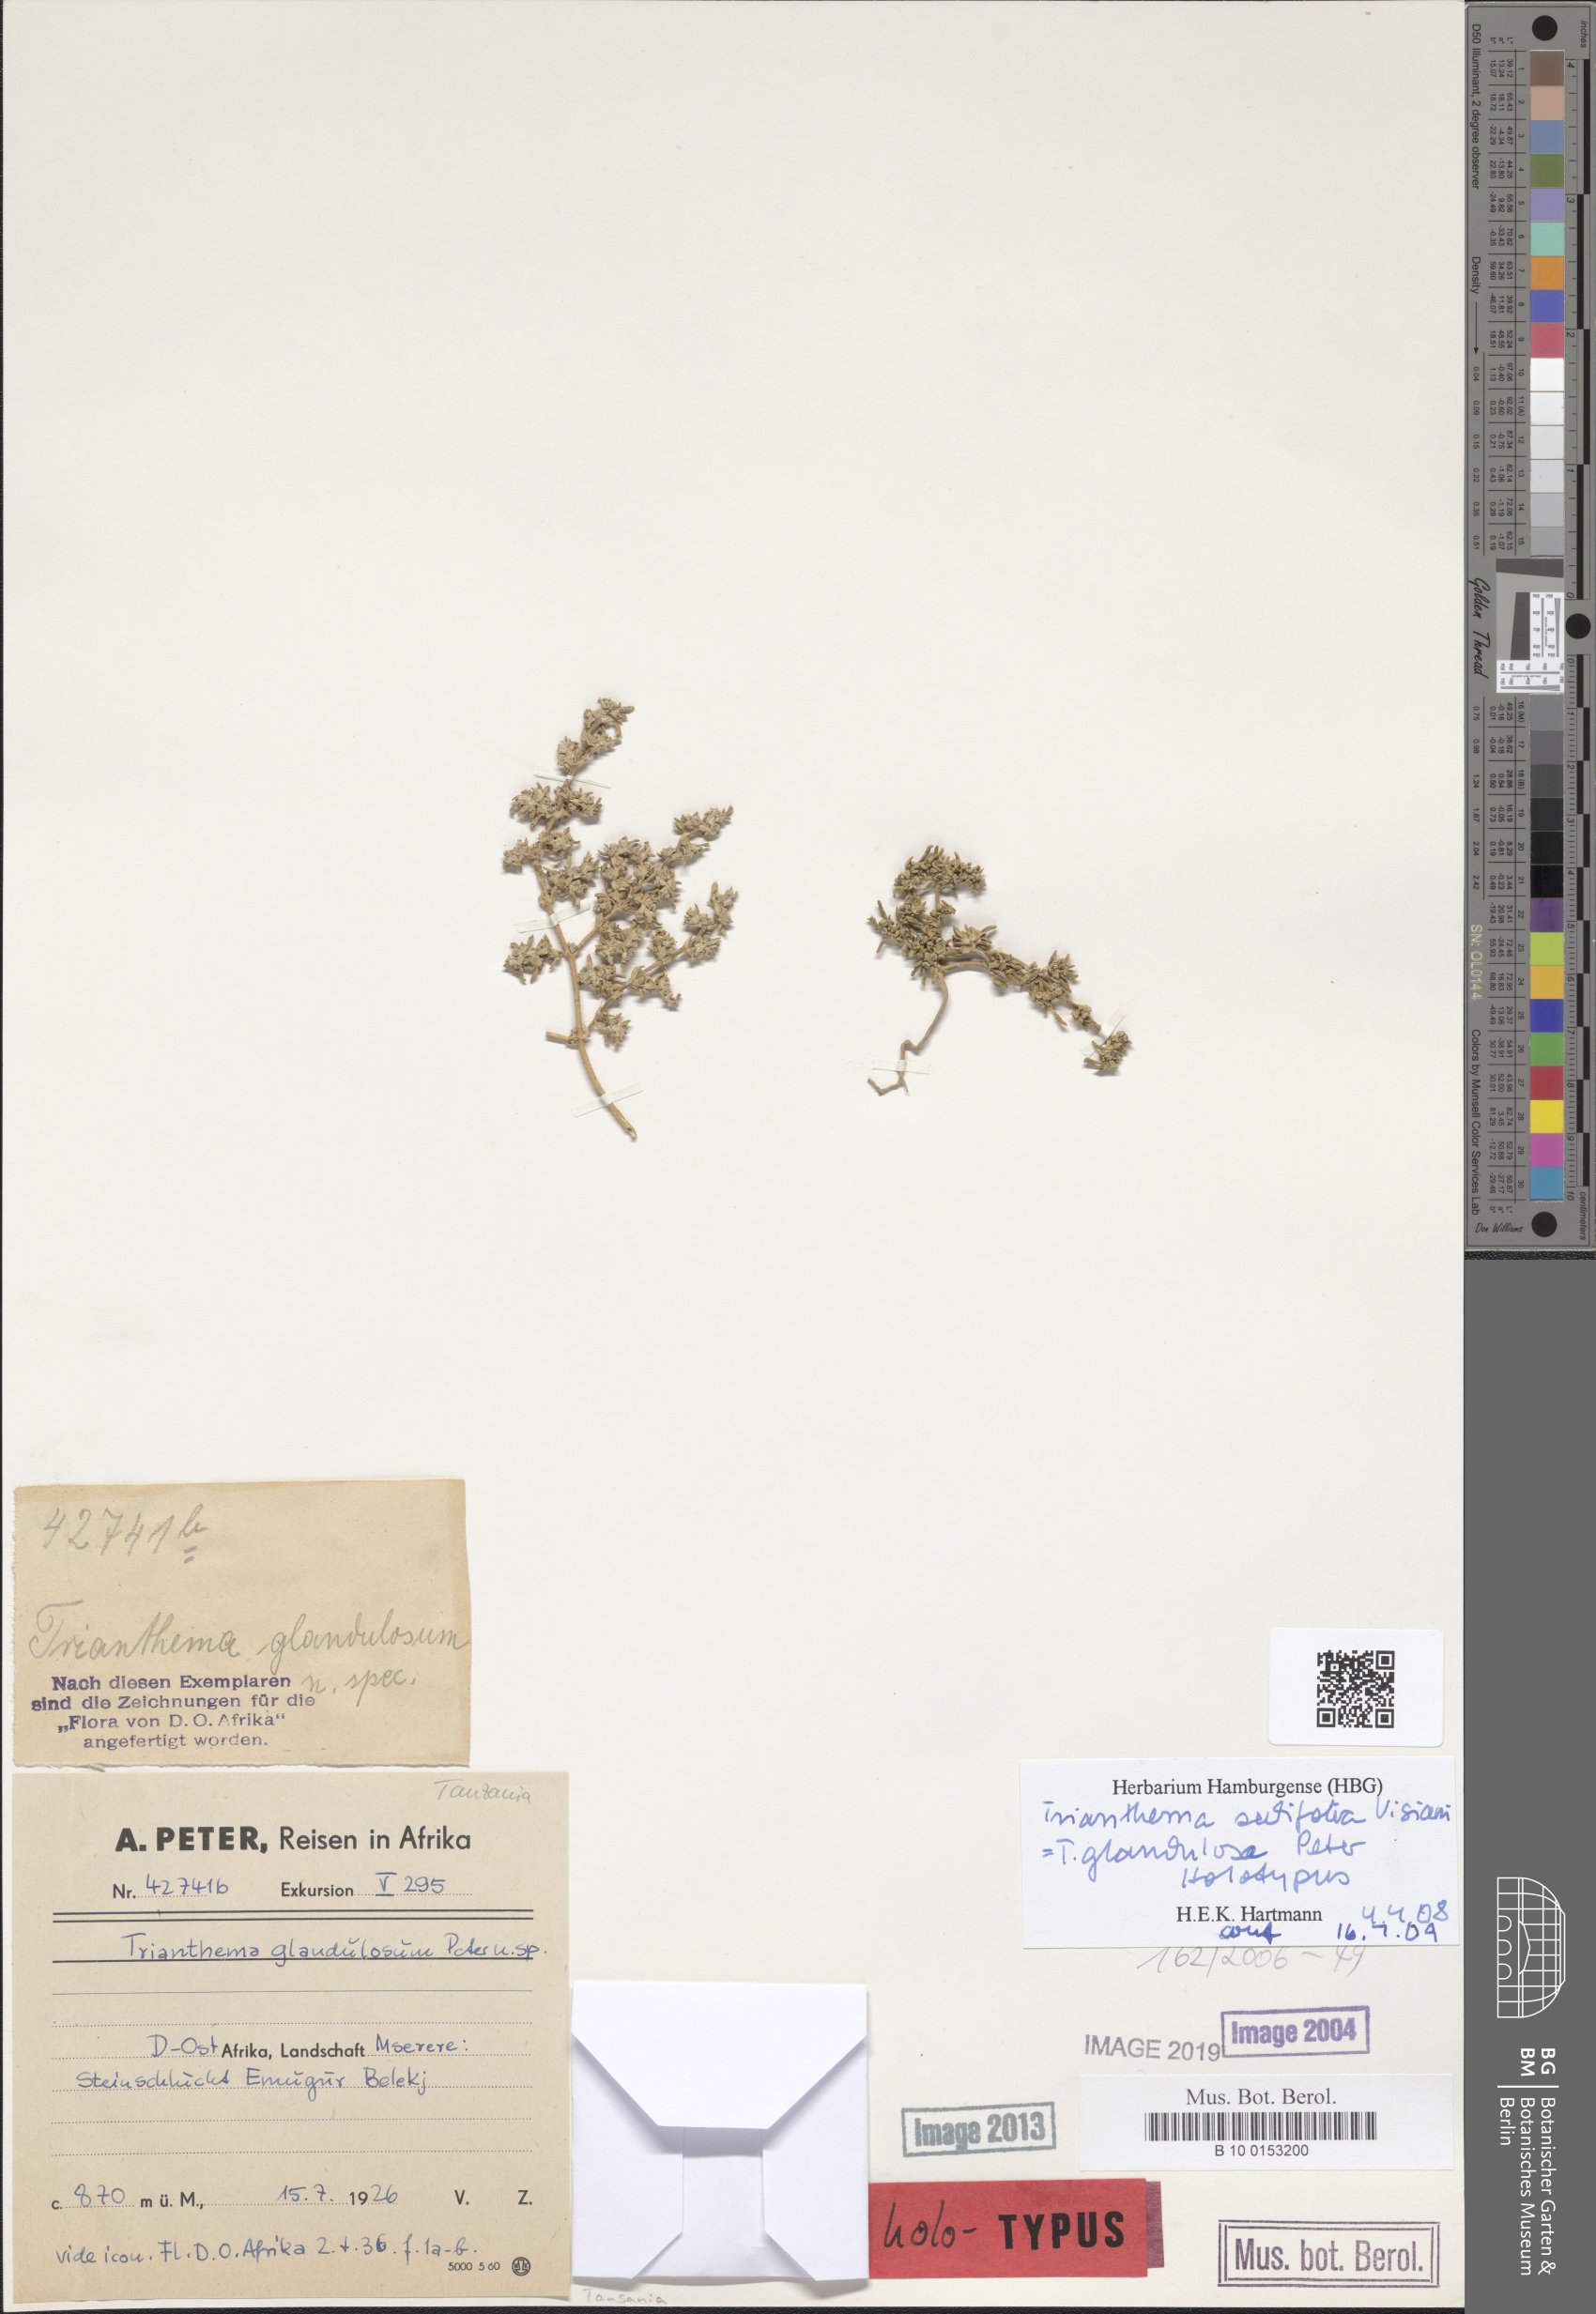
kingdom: Plantae
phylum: Tracheophyta
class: Magnoliopsida
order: Caryophyllales
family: Aizoaceae
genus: Trianthema
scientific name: Trianthema triquetrum
